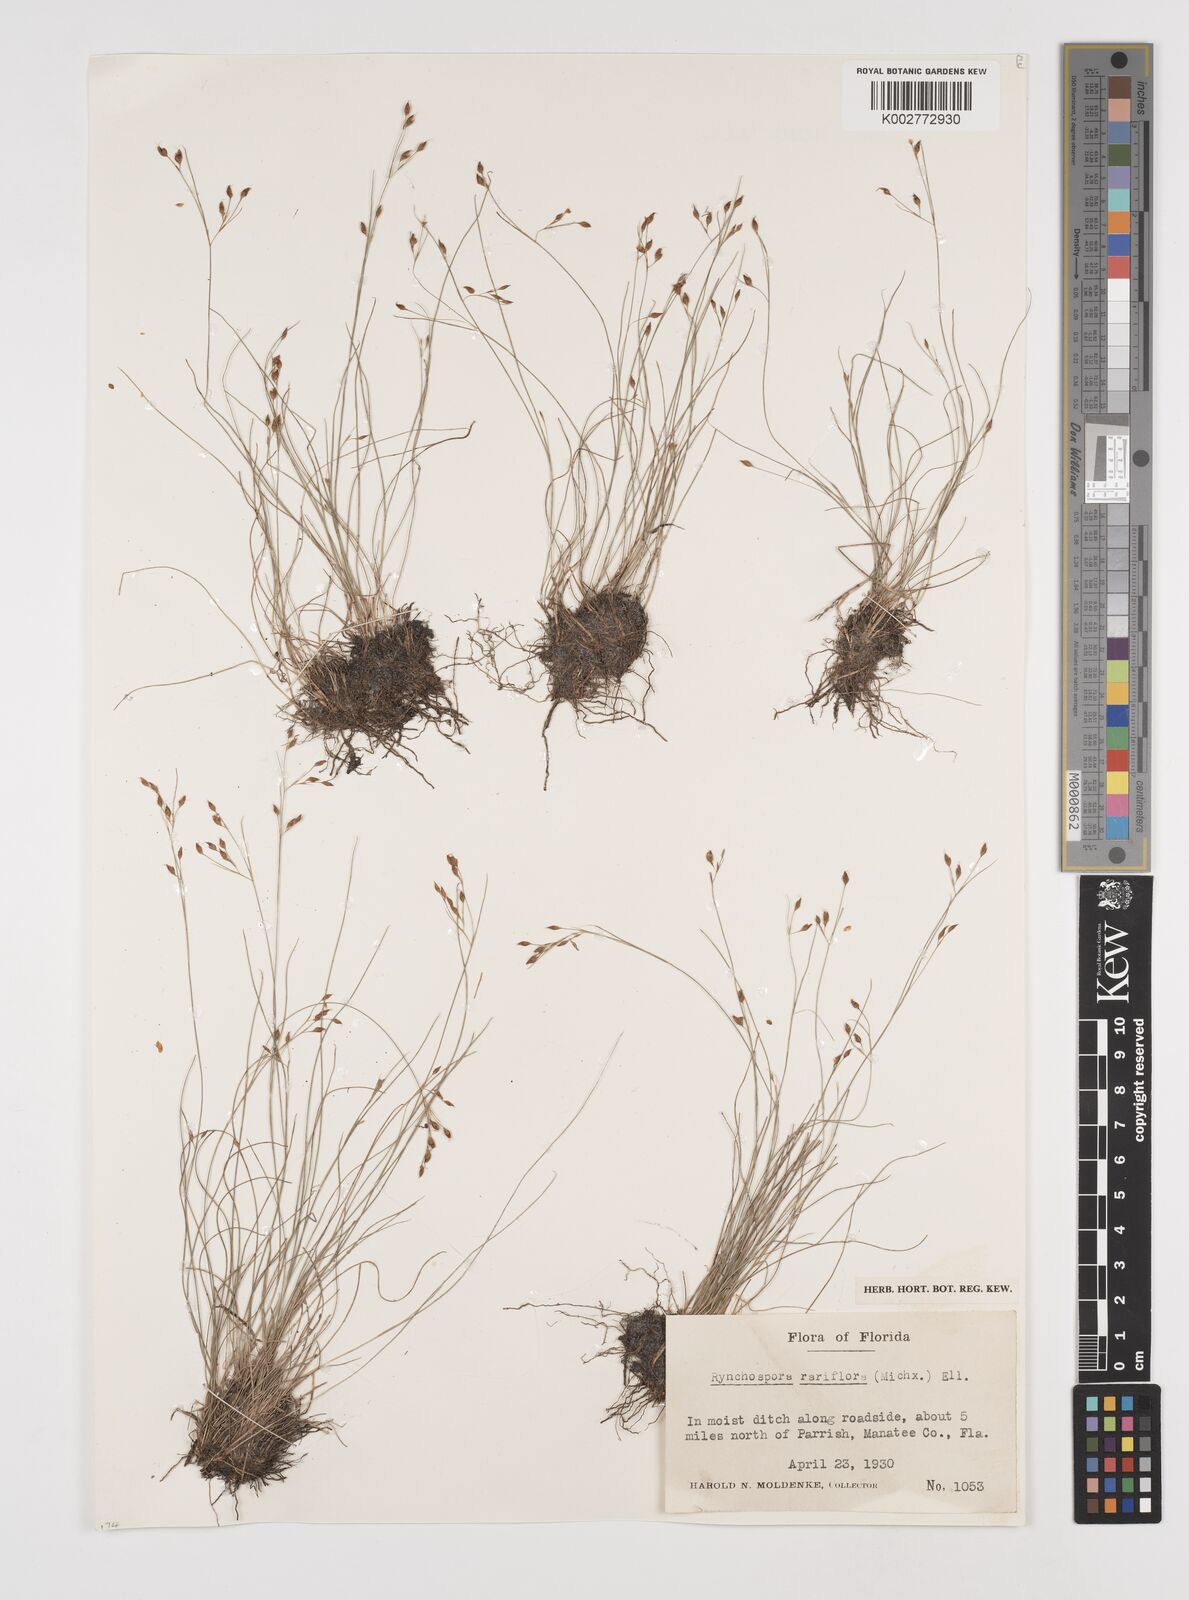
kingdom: Plantae
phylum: Tracheophyta
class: Liliopsida
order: Poales
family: Cyperaceae
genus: Rhynchospora
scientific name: Rhynchospora rariflora
